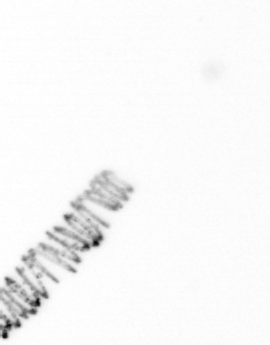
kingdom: Chromista
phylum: Ochrophyta
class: Bacillariophyceae
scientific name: Bacillariophyceae
